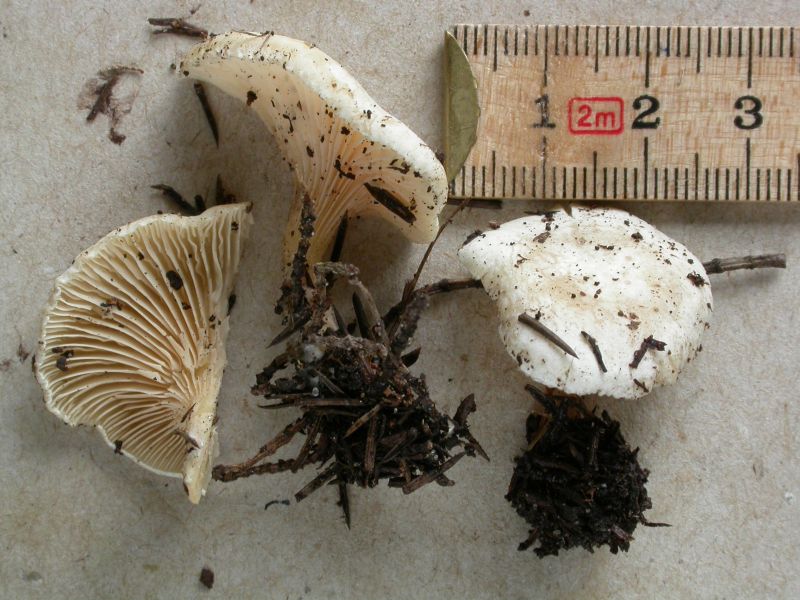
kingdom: Fungi
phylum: Basidiomycota
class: Agaricomycetes
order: Agaricales
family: Tricholomataceae
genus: Lulesia
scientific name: Lulesia
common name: hvid troldhat
